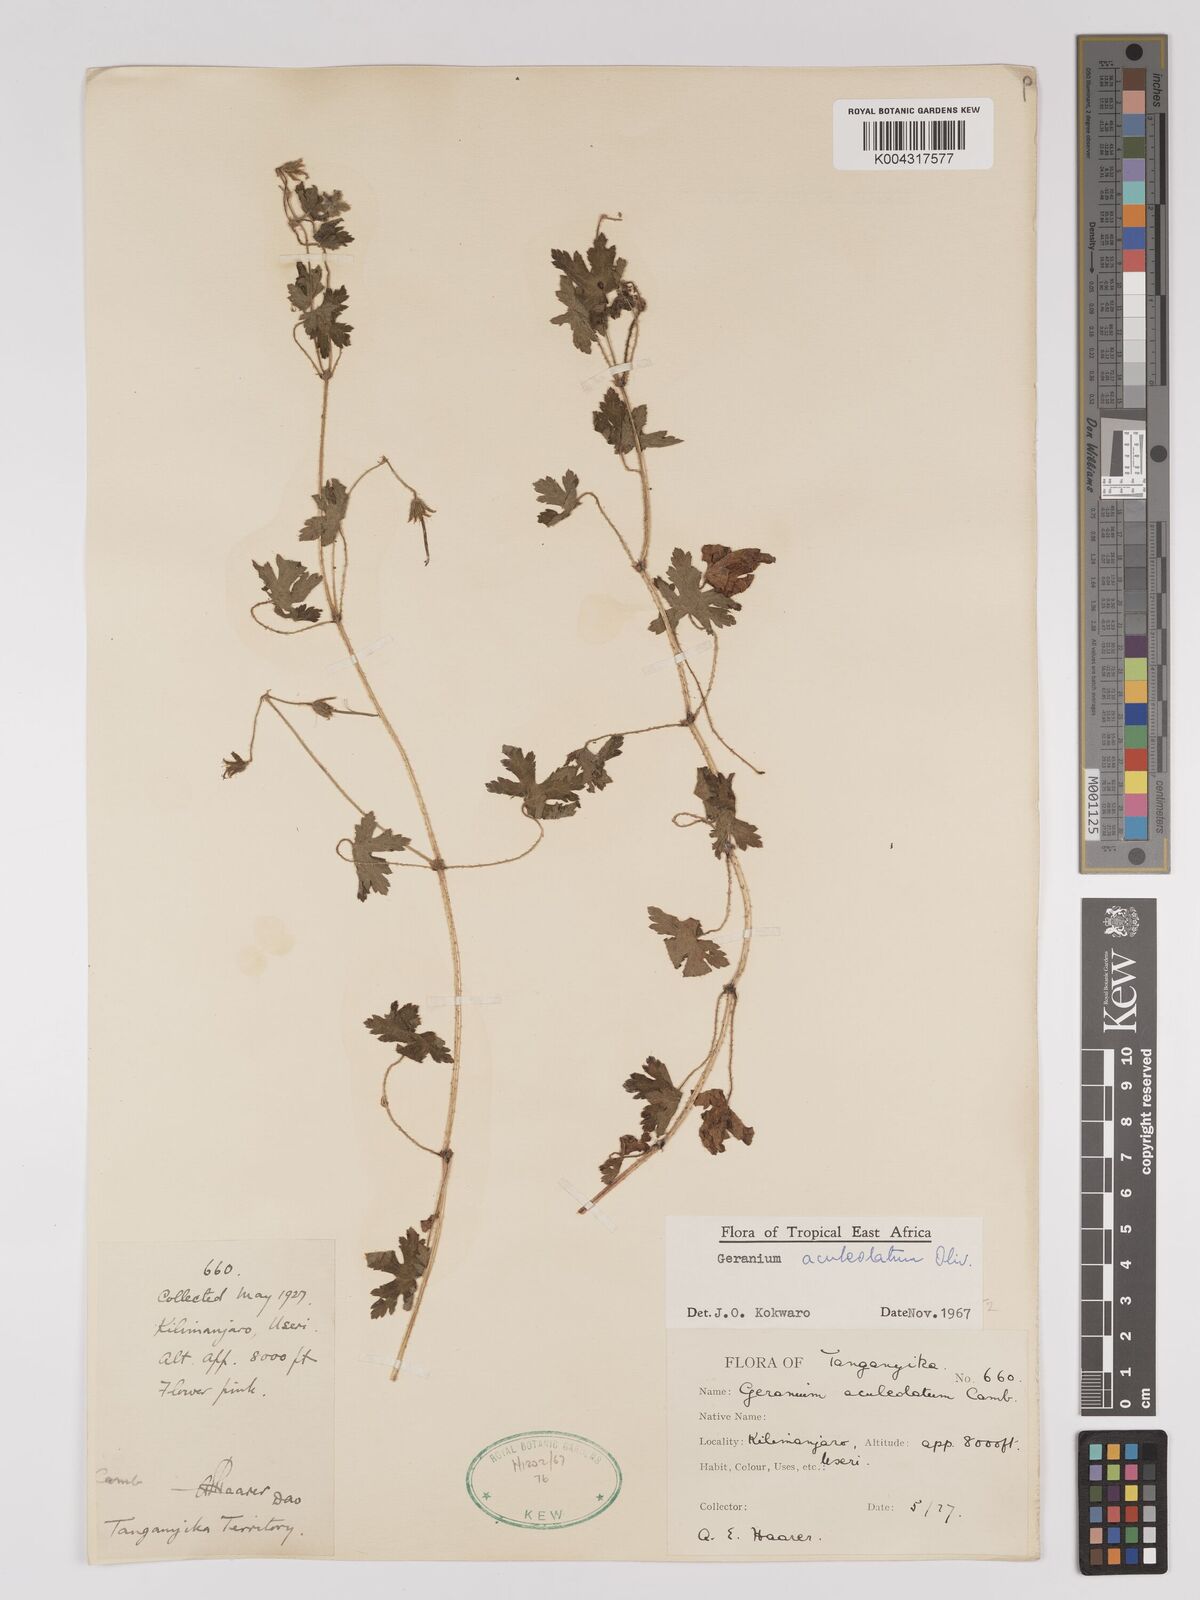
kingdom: Plantae
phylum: Tracheophyta
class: Magnoliopsida
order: Geraniales
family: Geraniaceae
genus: Geranium
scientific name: Geranium aculeolatum
